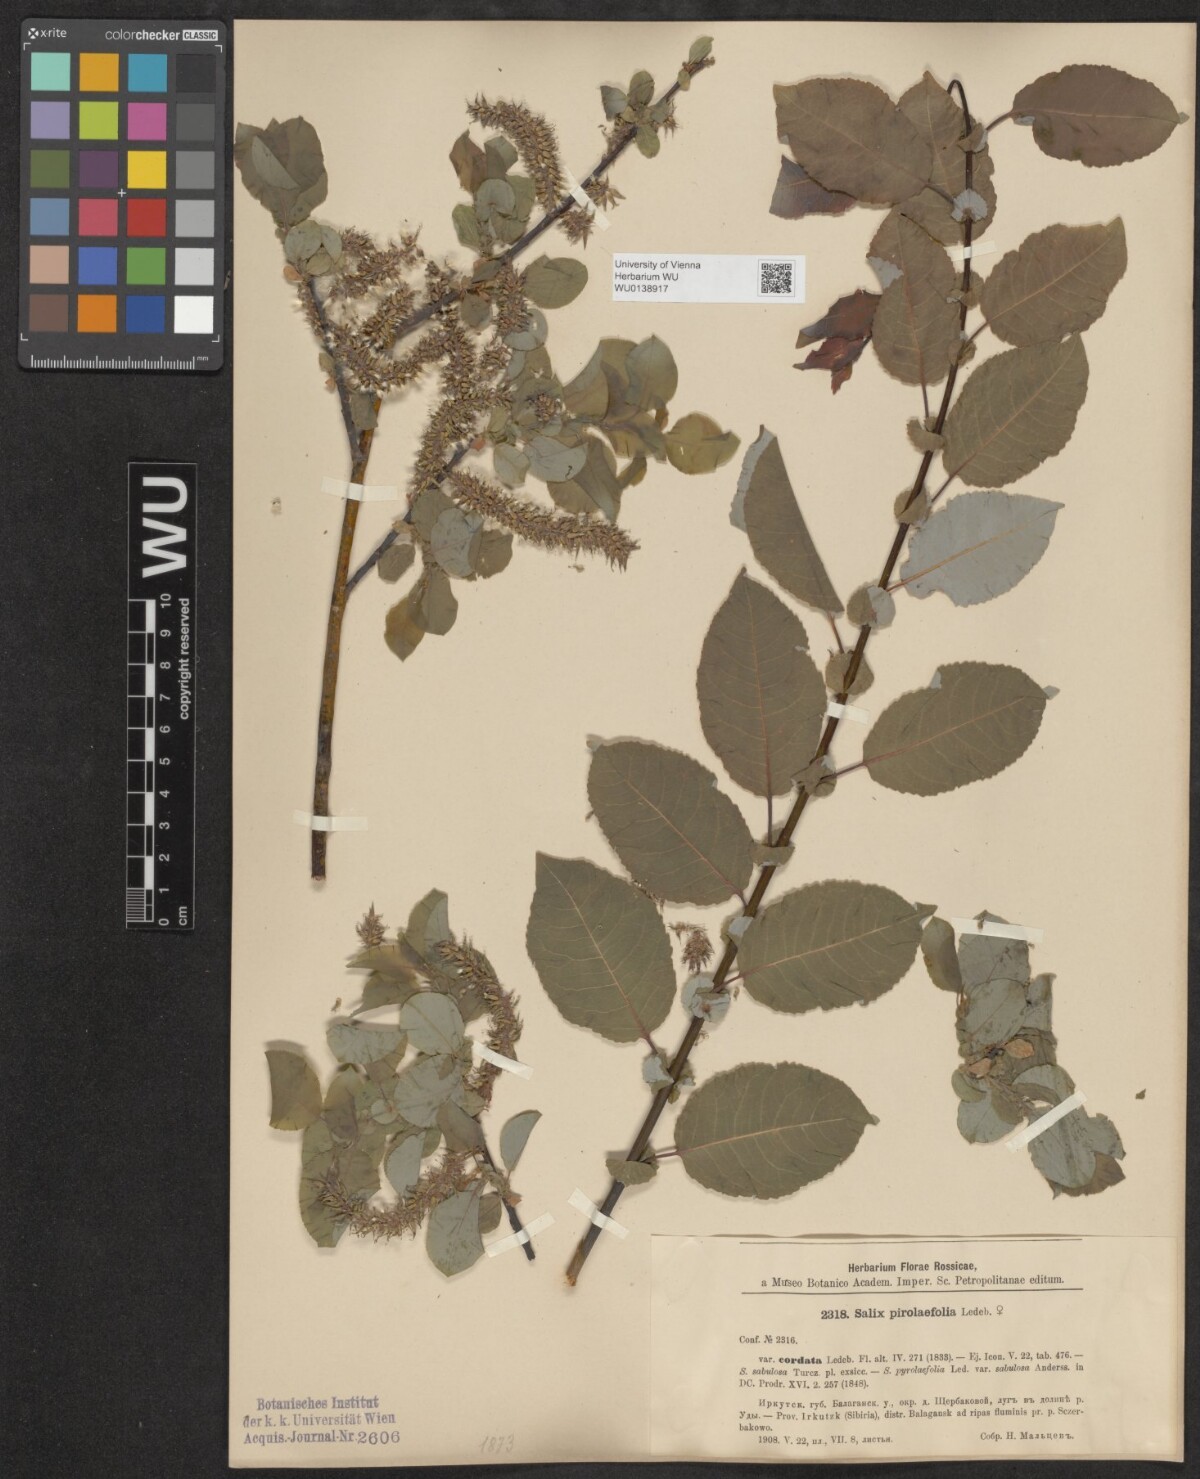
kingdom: Plantae
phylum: Tracheophyta
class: Magnoliopsida
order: Malpighiales
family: Salicaceae
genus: Salix
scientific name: Salix pyrolifolia
